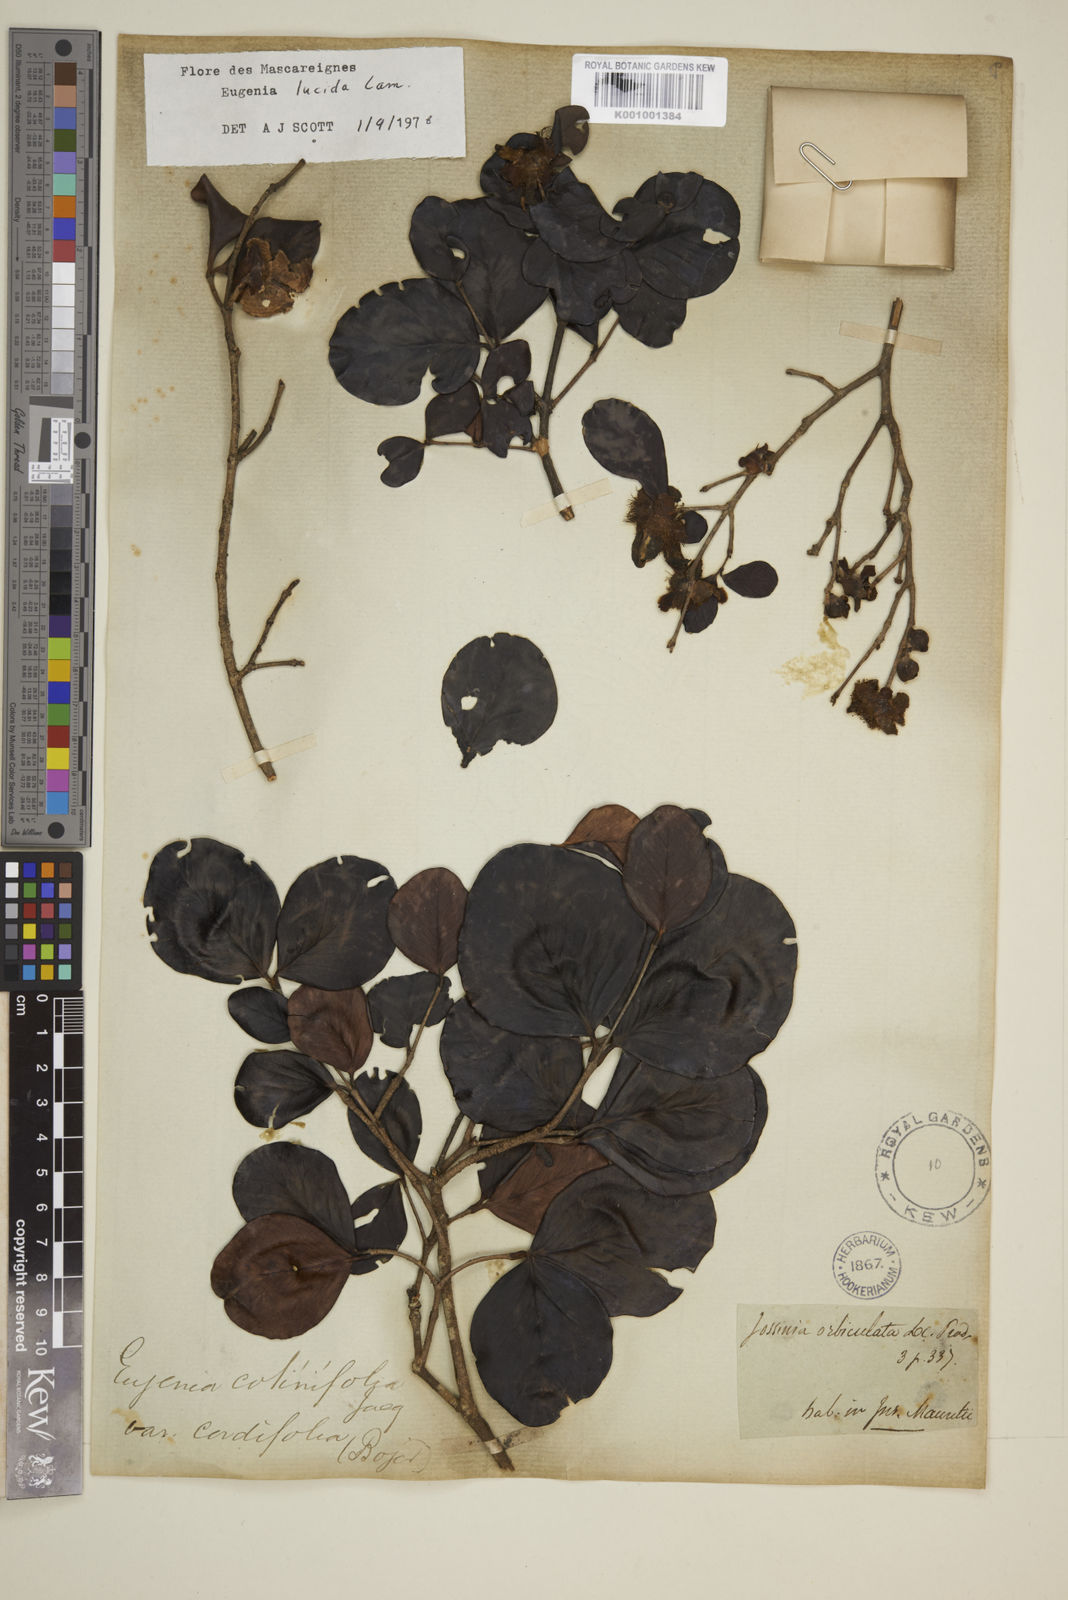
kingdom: Plantae
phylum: Tracheophyta
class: Magnoliopsida
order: Myrtales
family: Myrtaceae
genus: Eugenia
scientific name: Eugenia lucida
